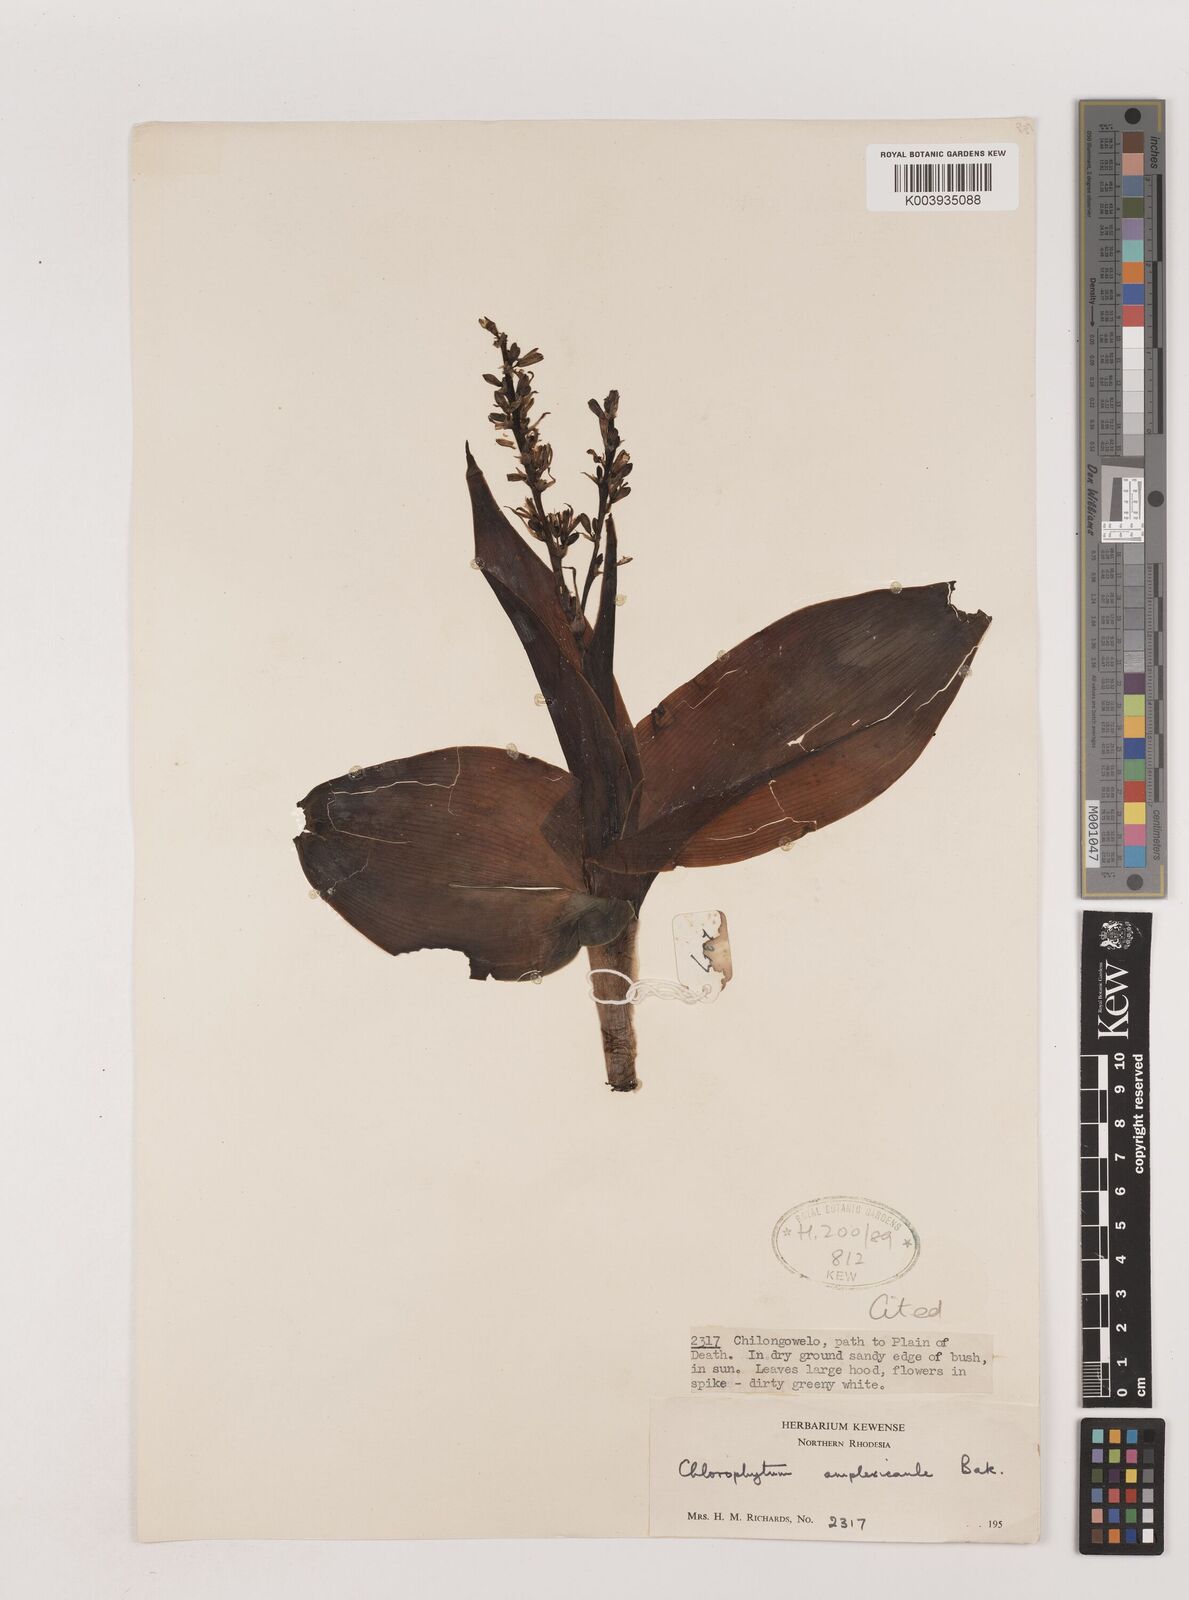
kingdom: Plantae
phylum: Tracheophyta
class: Liliopsida
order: Asparagales
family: Asparagaceae
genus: Chlorophytum
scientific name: Chlorophytum blepharophyllum
